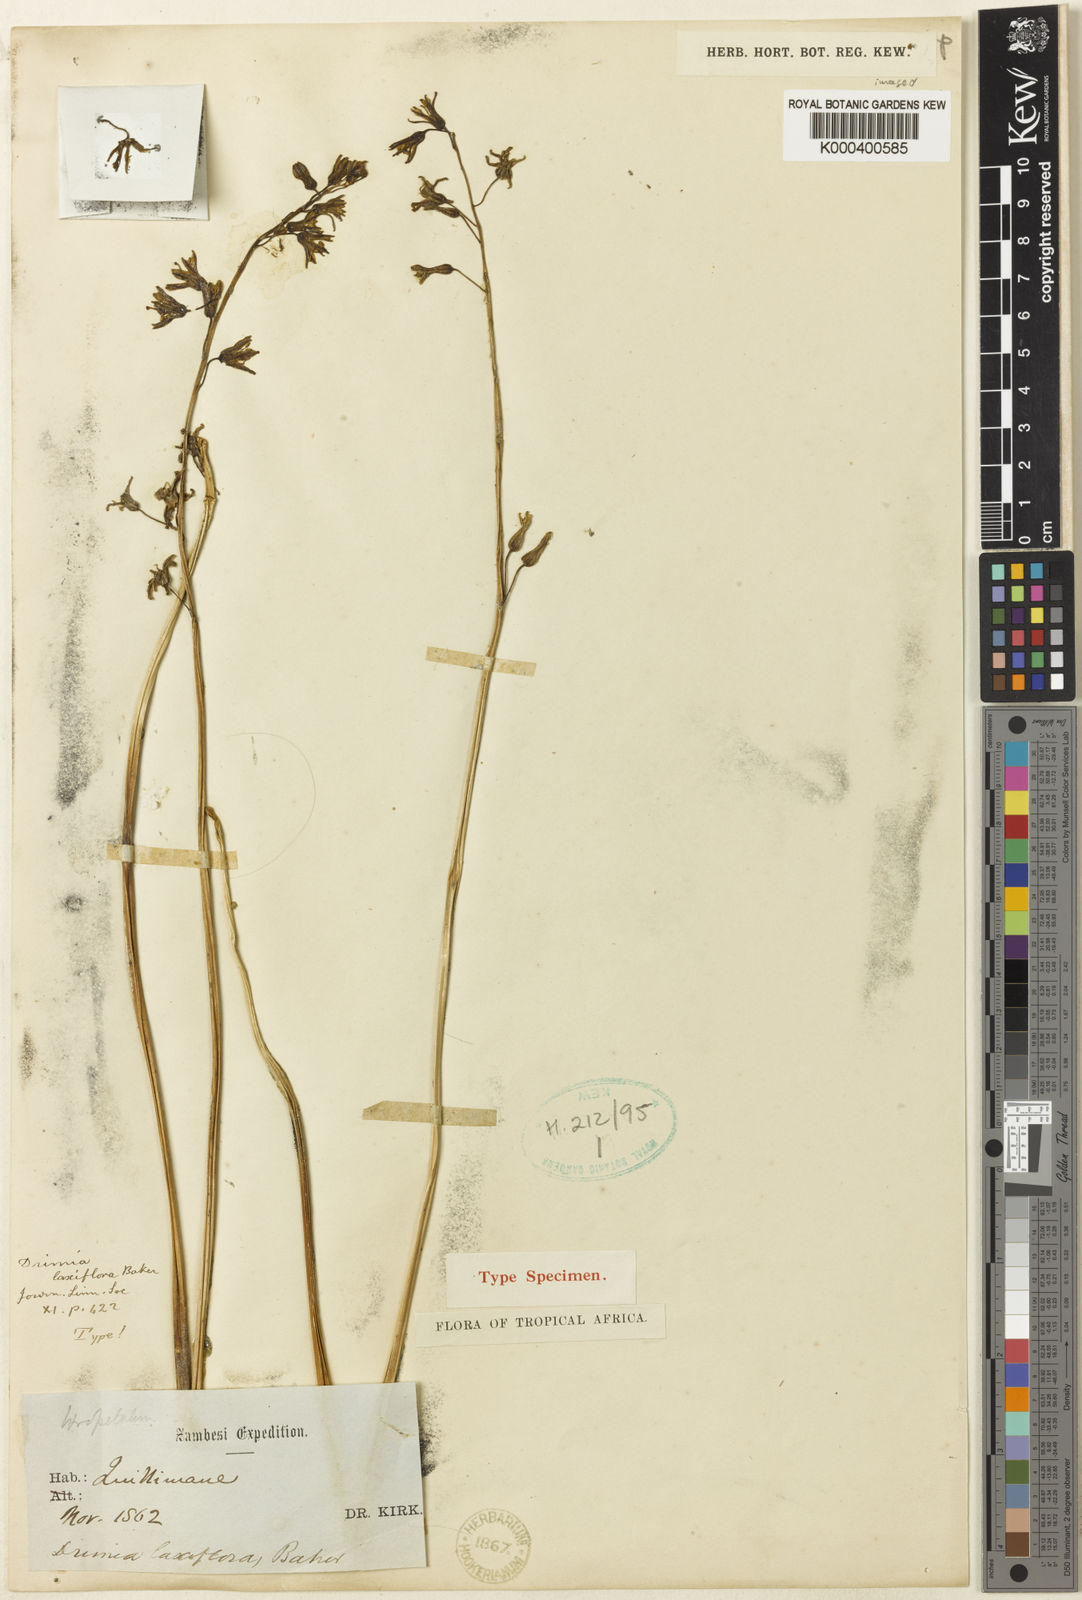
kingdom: Plantae
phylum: Tracheophyta
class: Liliopsida
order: Asparagales
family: Asparagaceae
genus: Drimia
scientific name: Drimia laxiflora
